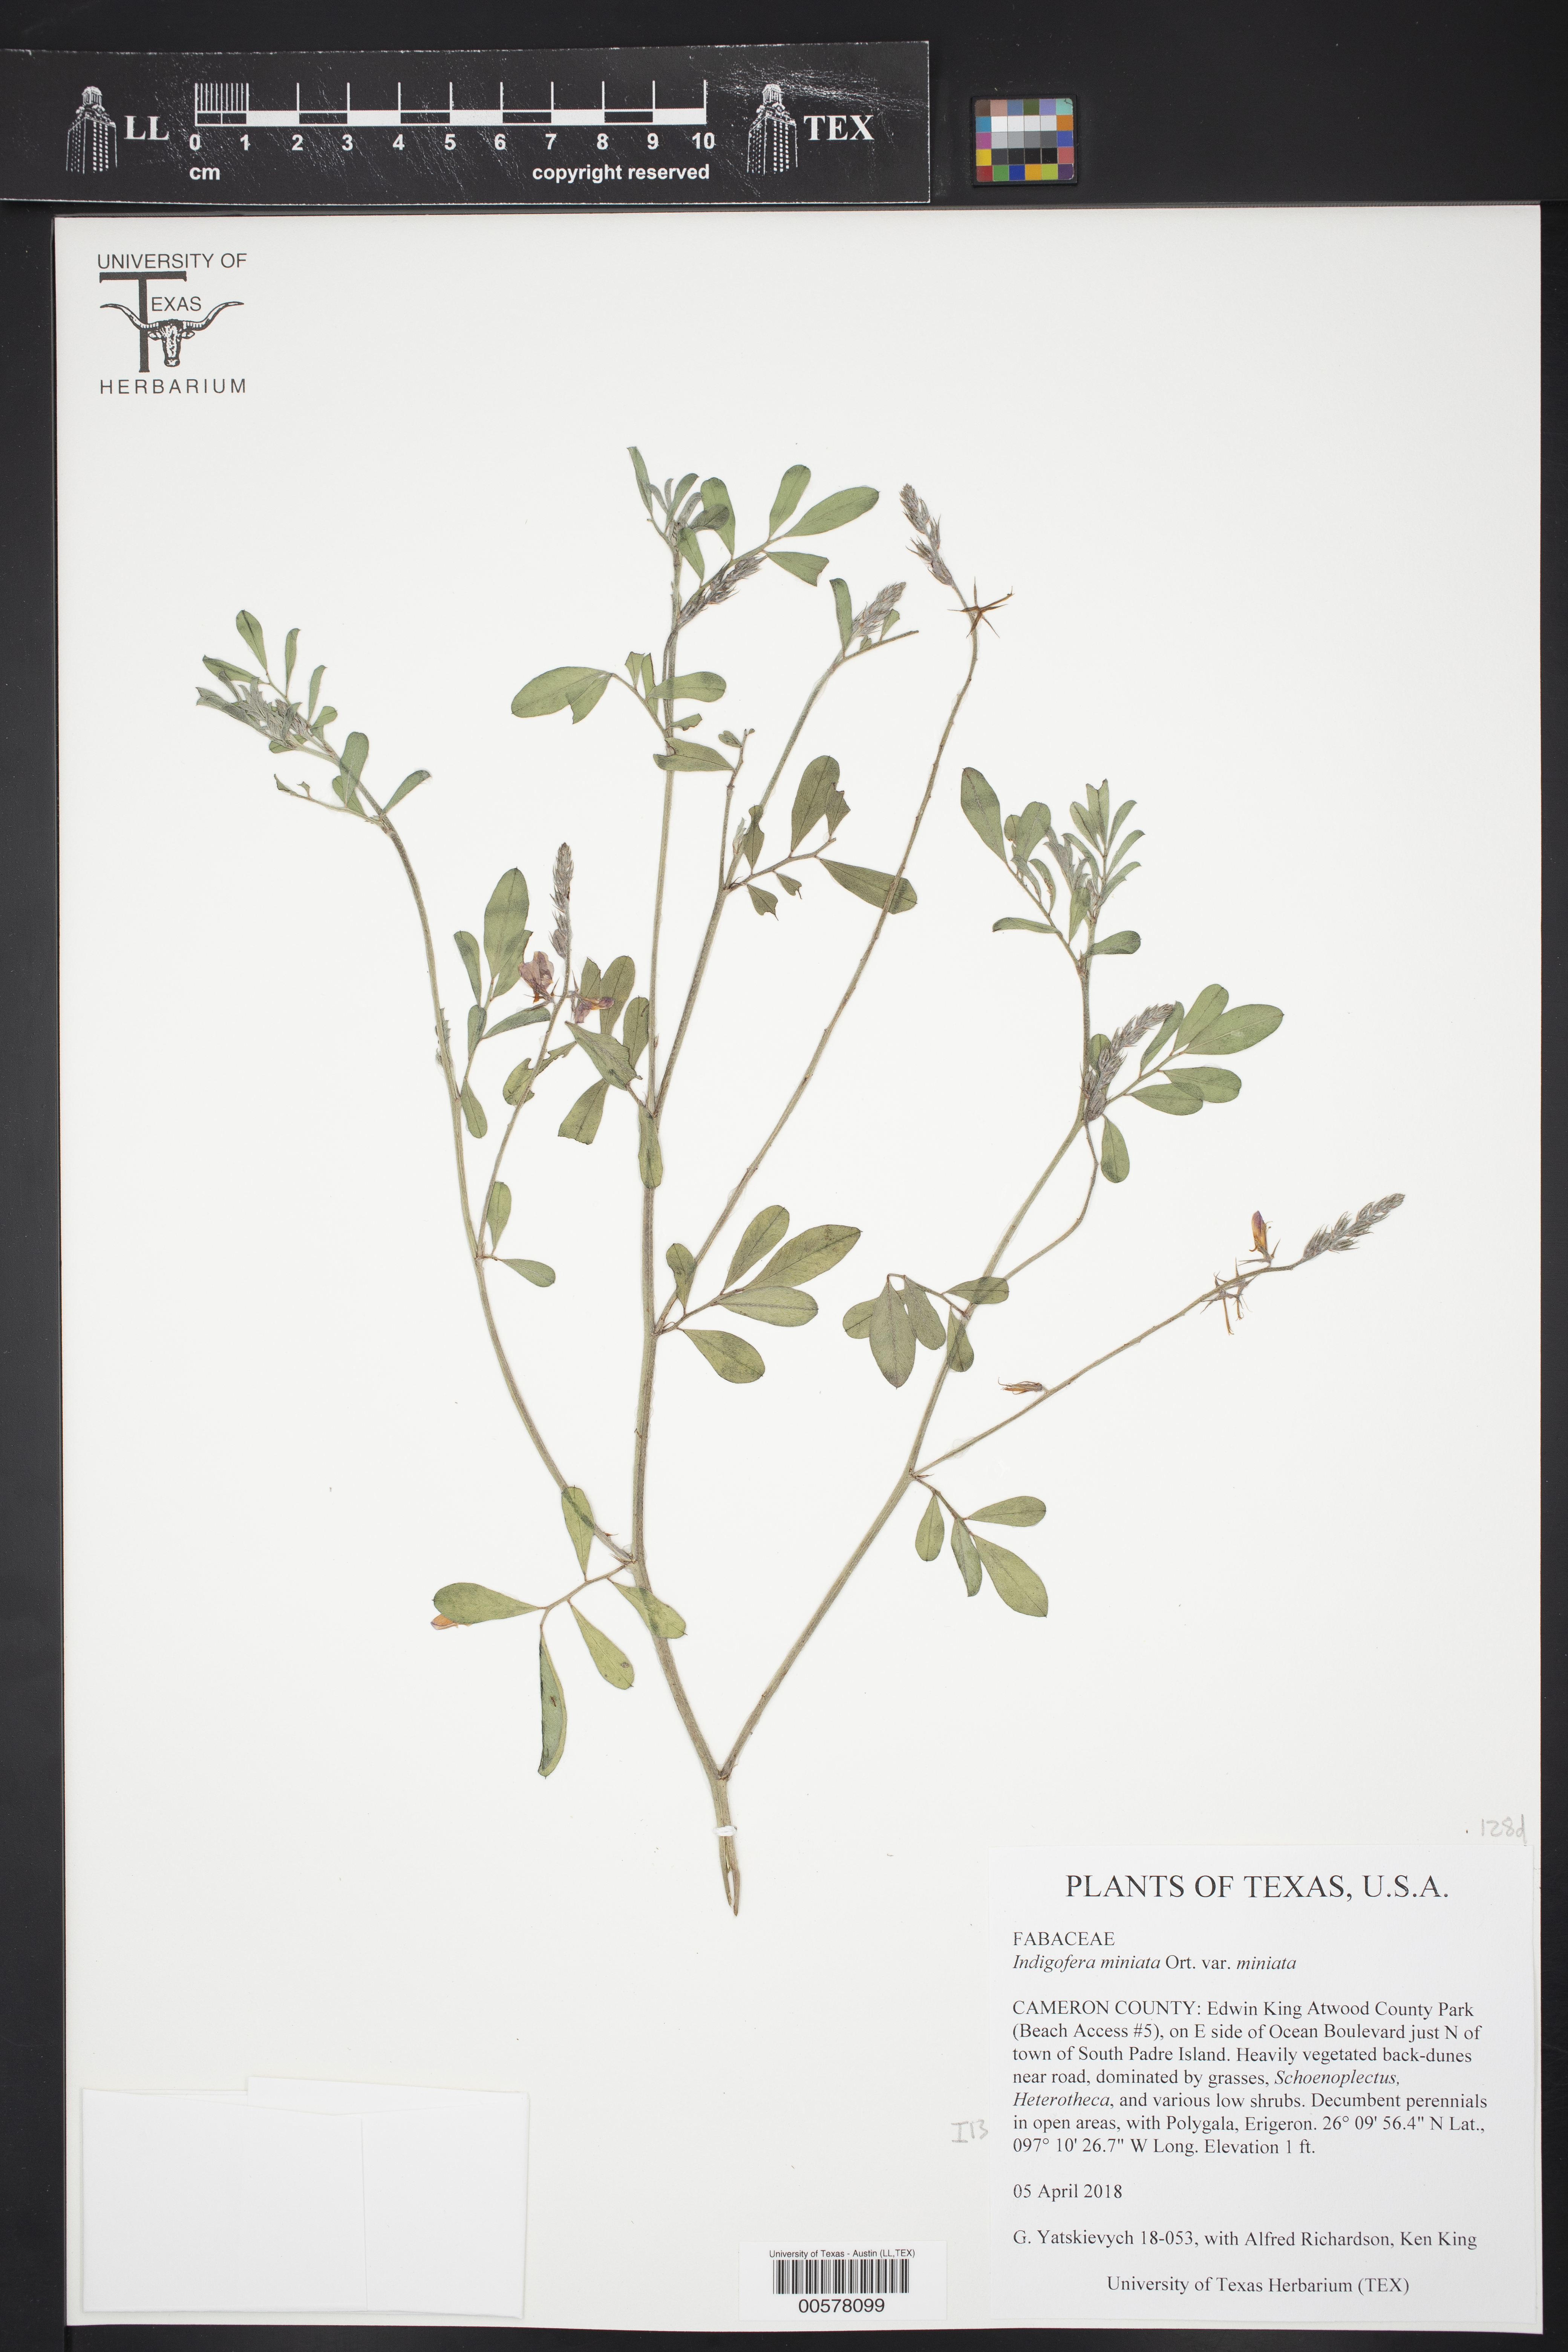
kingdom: Plantae
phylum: Tracheophyta
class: Magnoliopsida
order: Fabales
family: Fabaceae
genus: Indigofera
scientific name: Indigofera miniata
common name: Coast indigo
